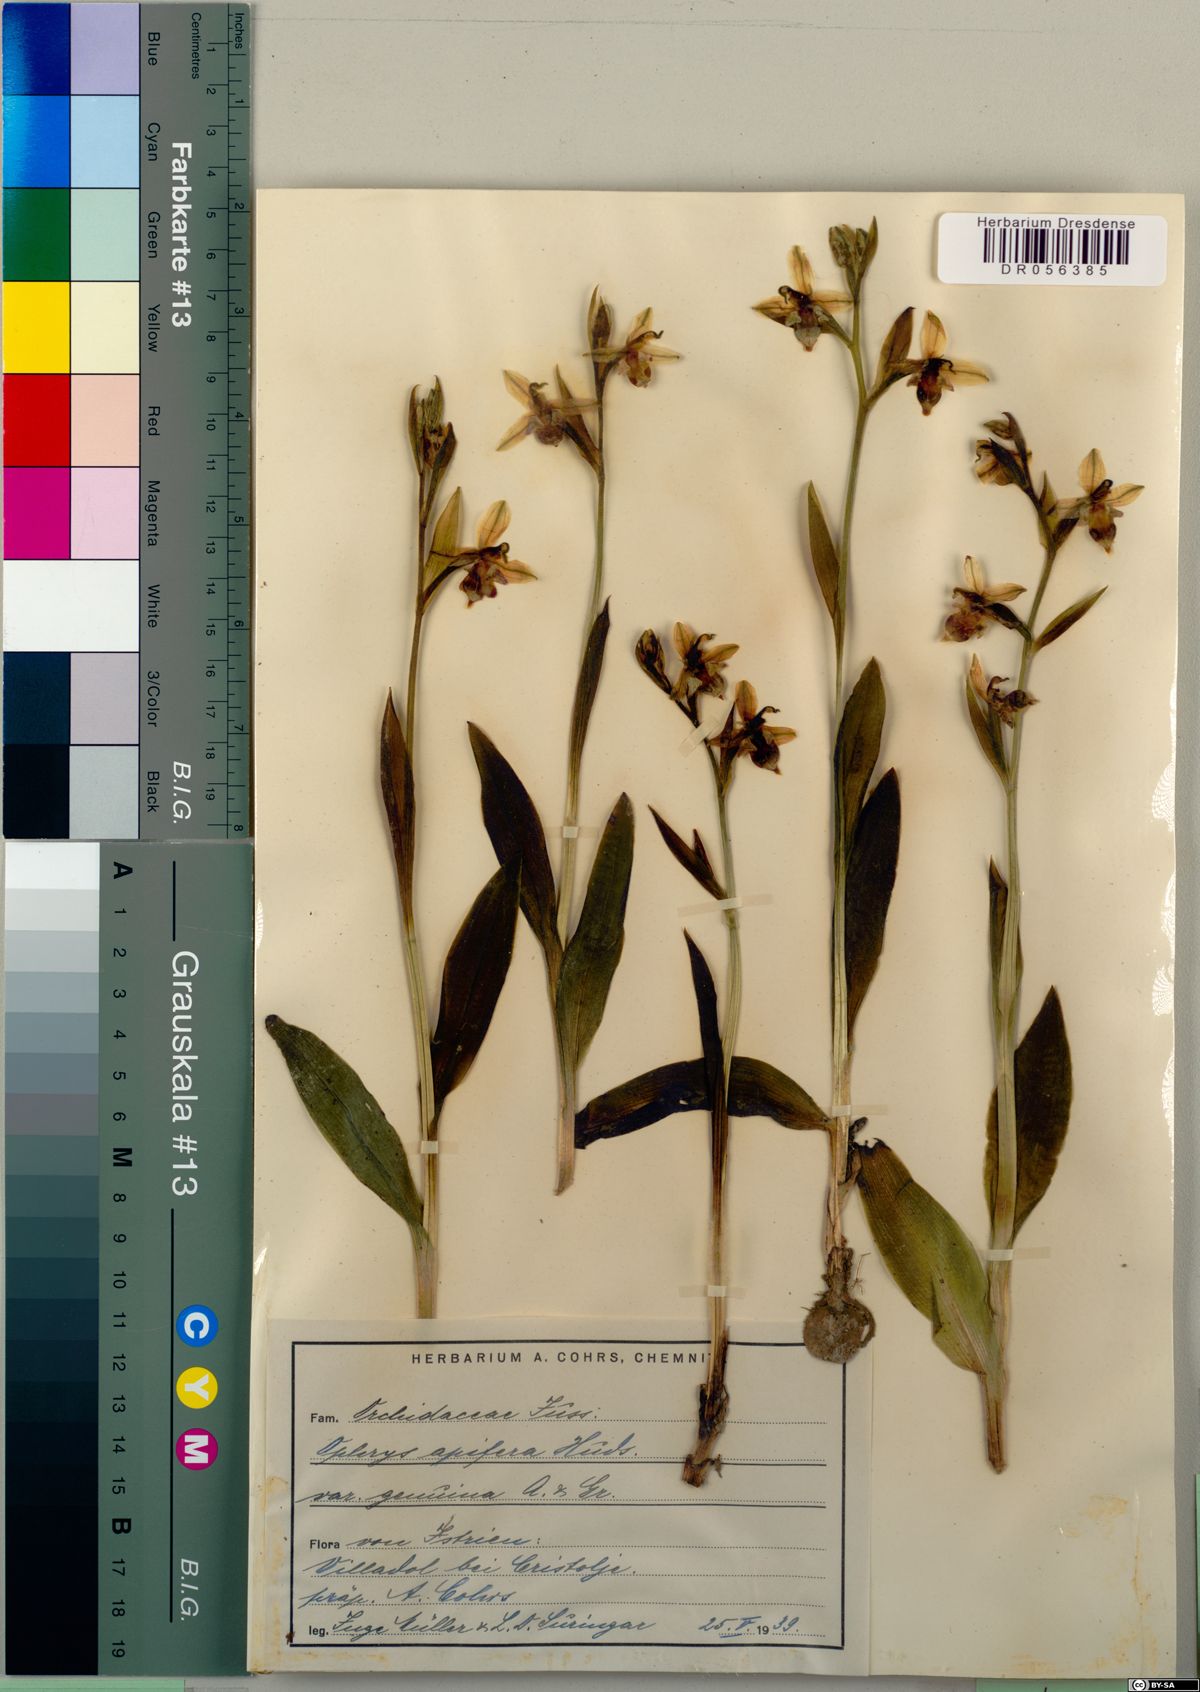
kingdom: Plantae
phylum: Tracheophyta
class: Liliopsida
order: Asparagales
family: Orchidaceae
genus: Ophrys
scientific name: Ophrys apifera
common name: Bee orchid
